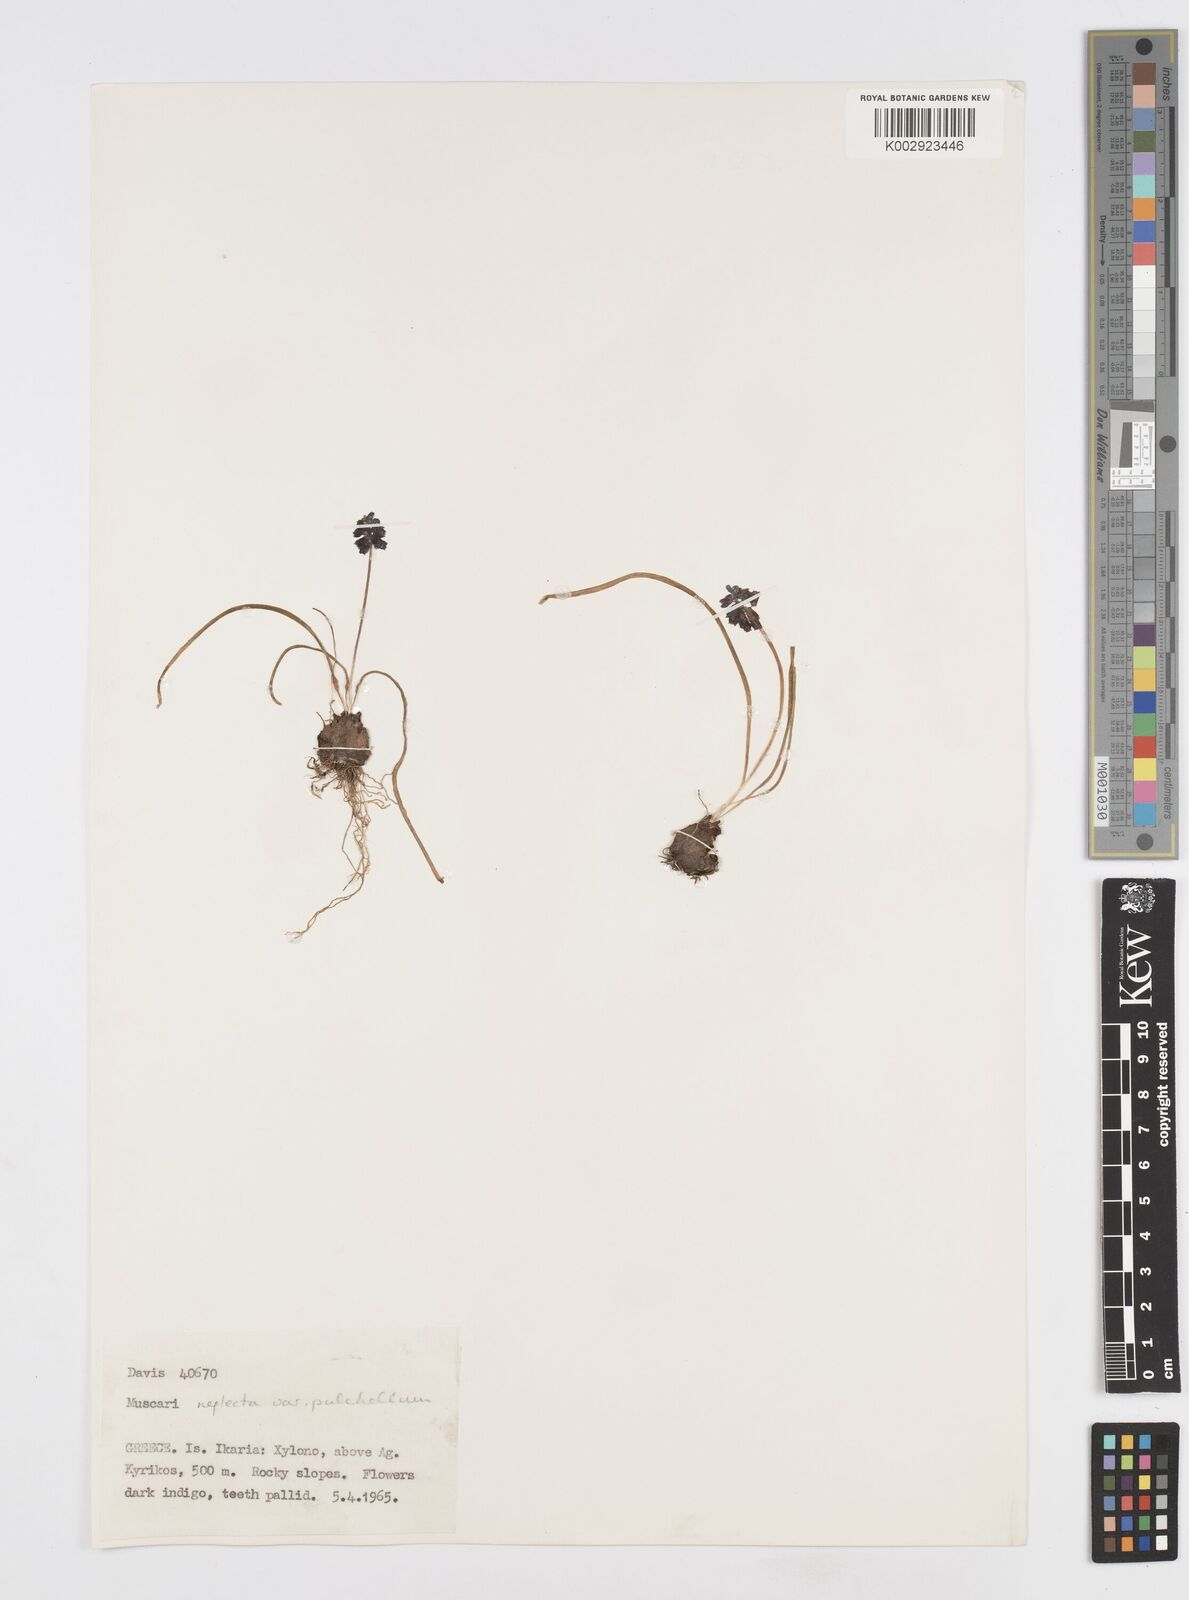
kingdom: Plantae
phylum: Tracheophyta
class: Liliopsida
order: Asparagales
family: Asparagaceae
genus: Muscari
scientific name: Muscari neglectum
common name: Grape-hyacinth
